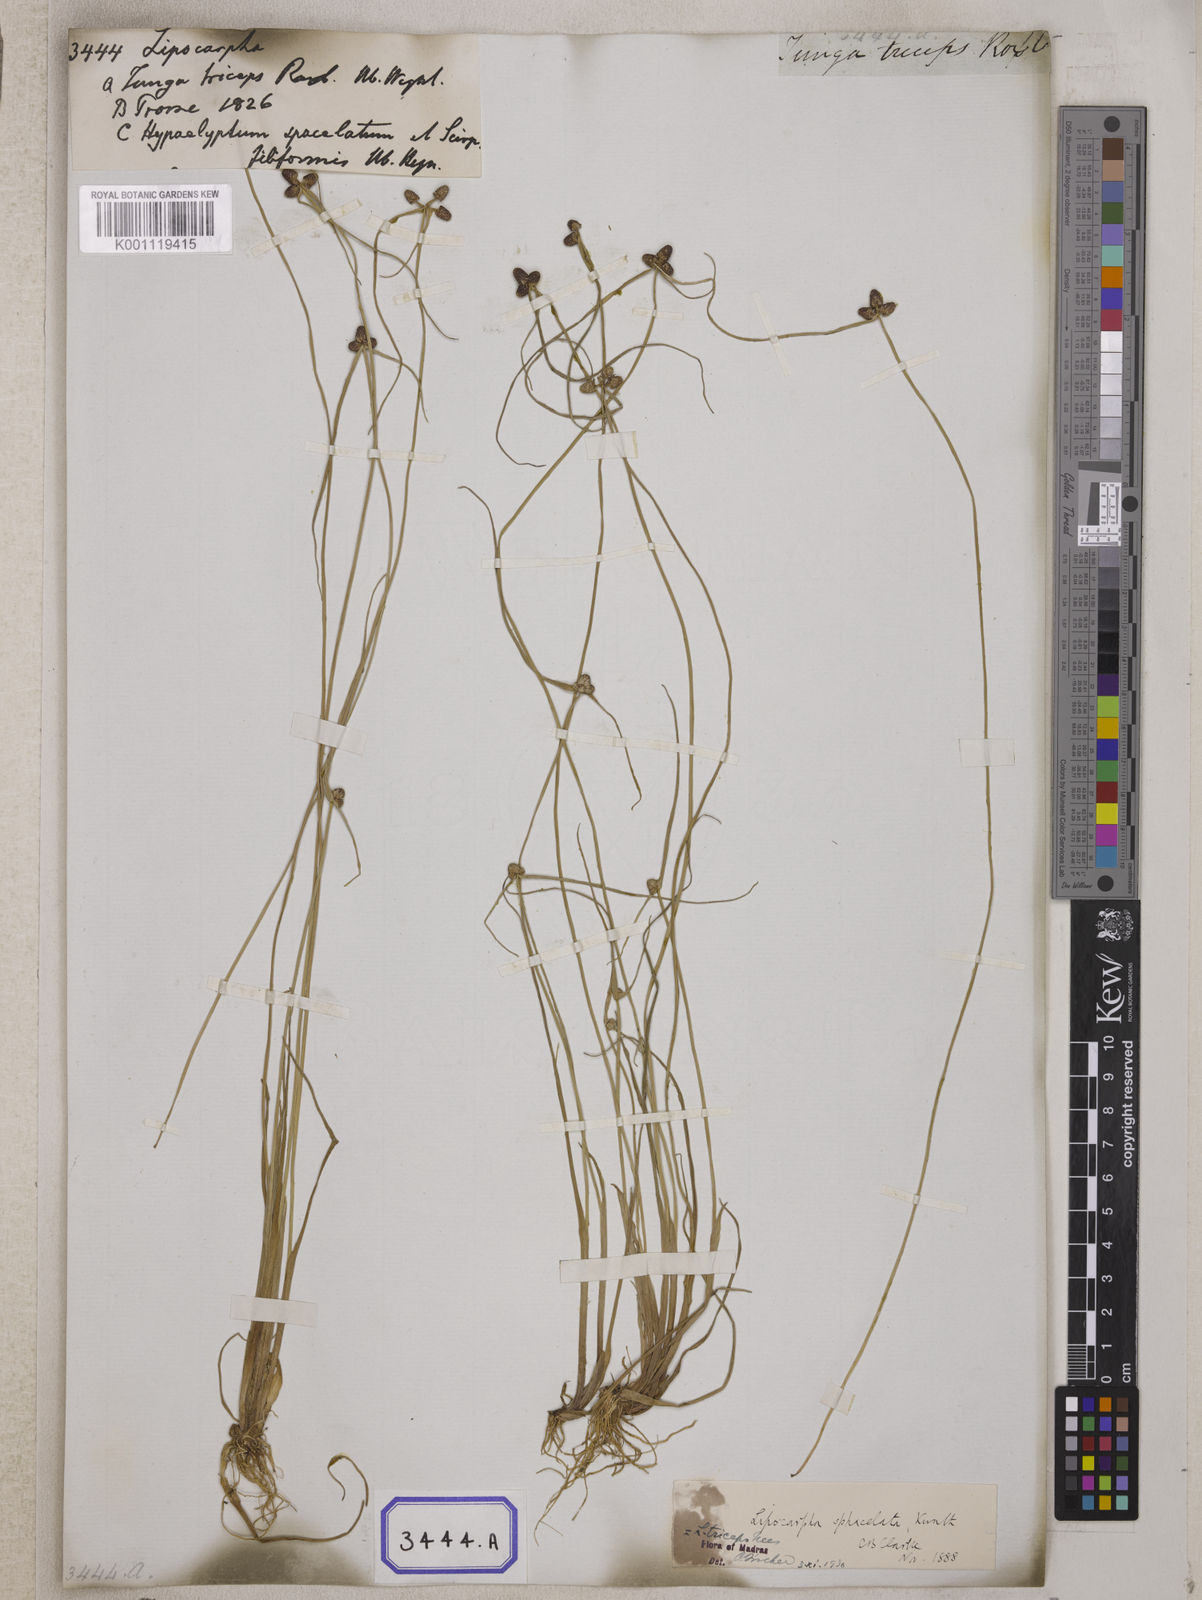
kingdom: Plantae
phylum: Tracheophyta
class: Liliopsida
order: Poales
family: Cyperaceae
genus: Cyperus
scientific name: Cyperus
